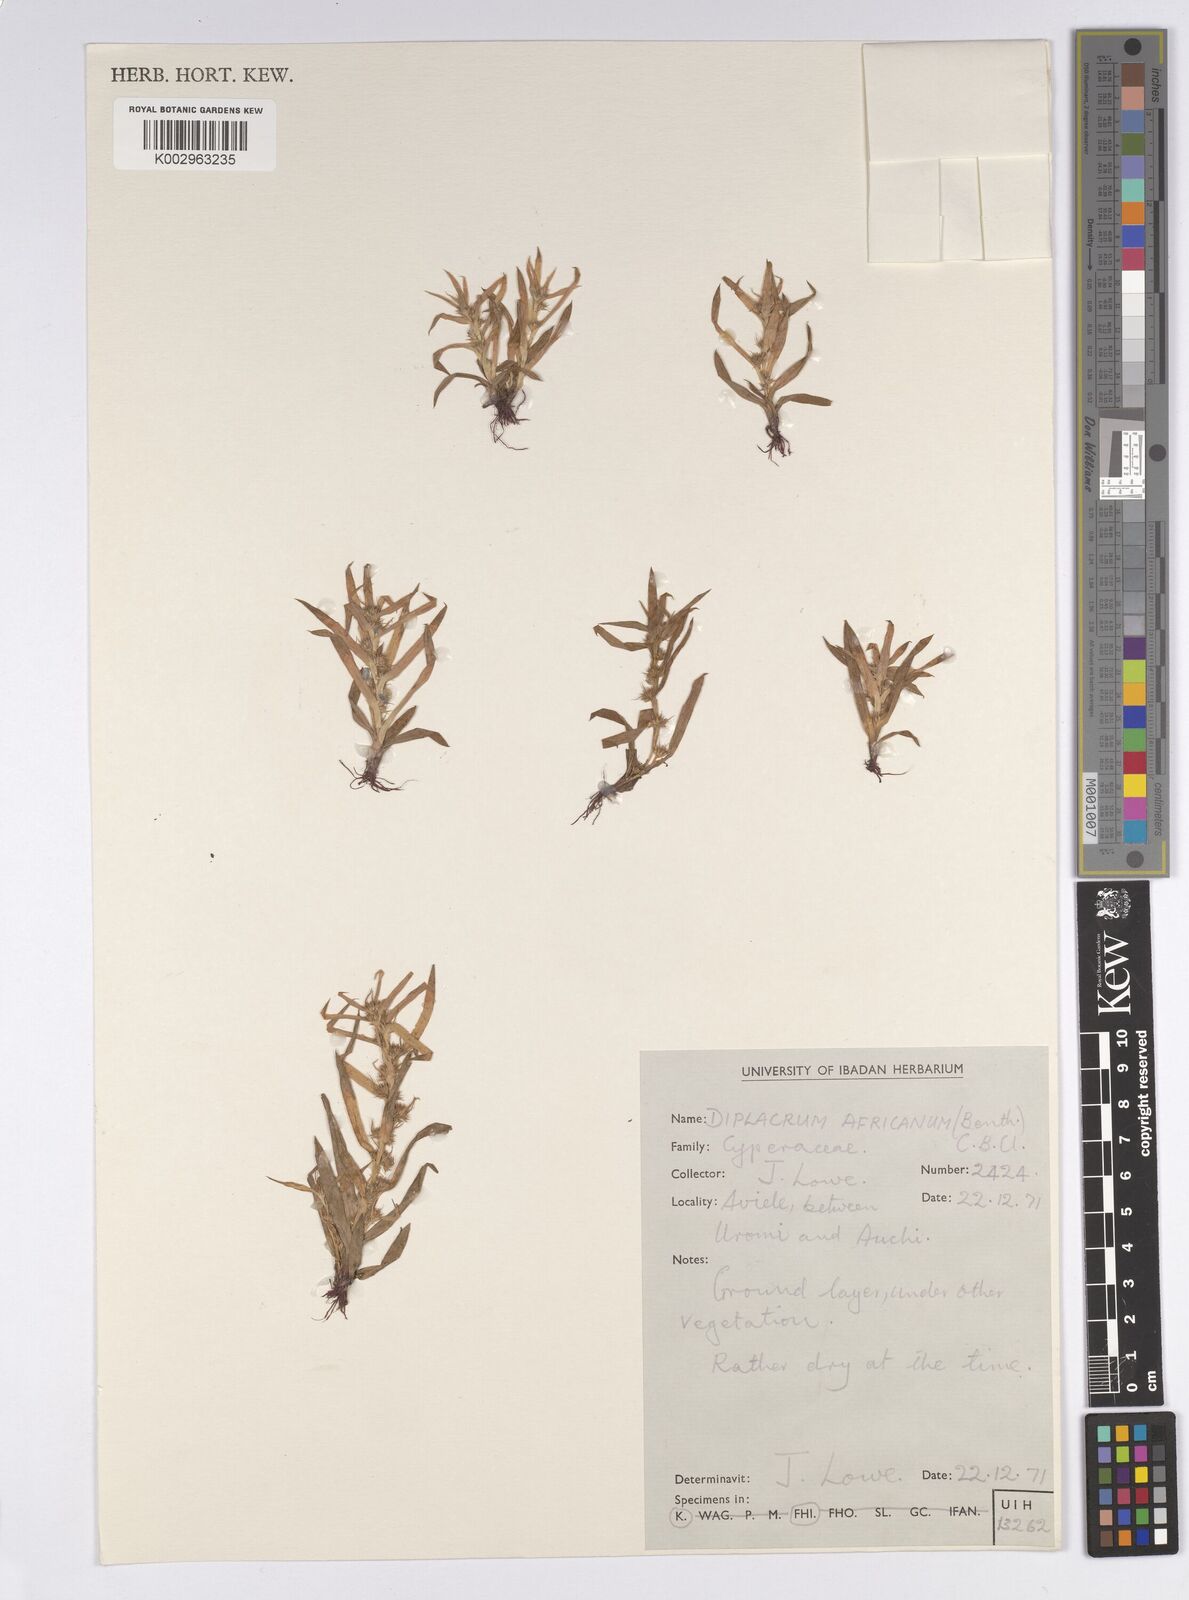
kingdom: Plantae
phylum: Tracheophyta
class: Liliopsida
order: Poales
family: Cyperaceae
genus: Diplacrum
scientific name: Diplacrum africanum
